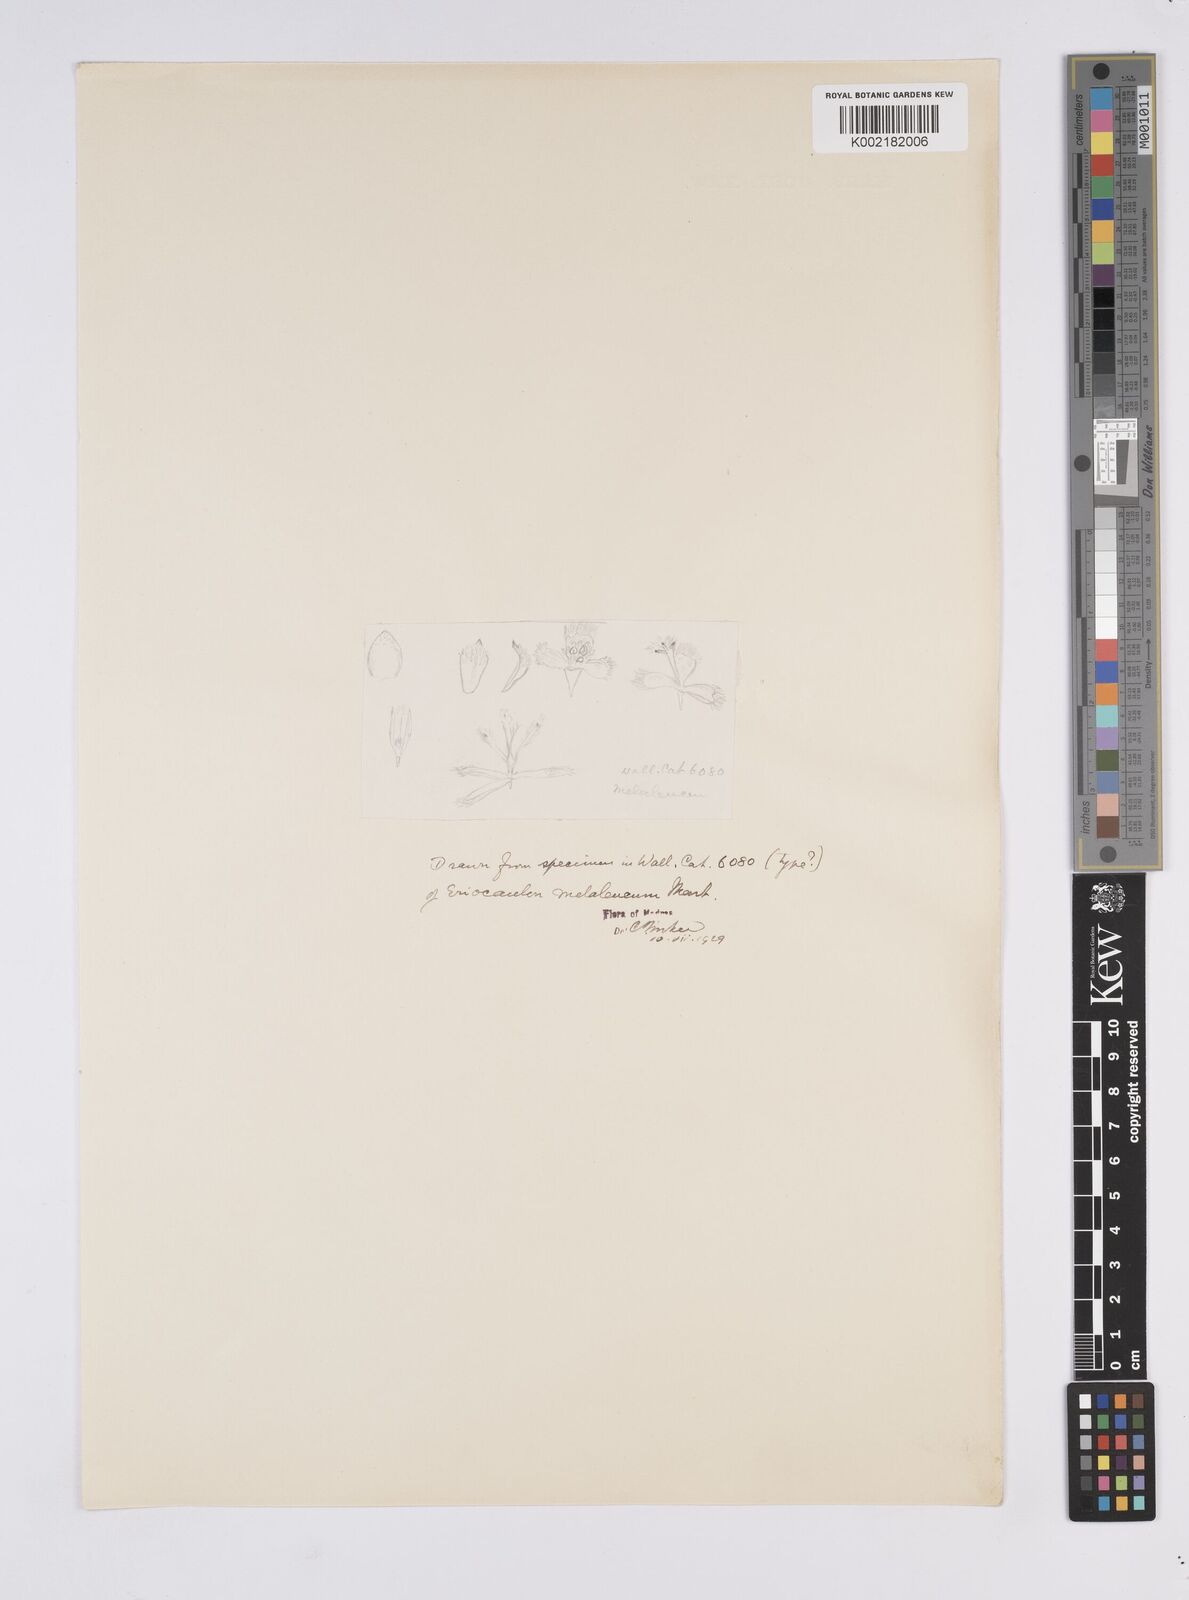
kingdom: Plantae
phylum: Tracheophyta
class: Liliopsida
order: Poales
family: Eriocaulaceae
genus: Eriocaulon
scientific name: Eriocaulon leucomelas
